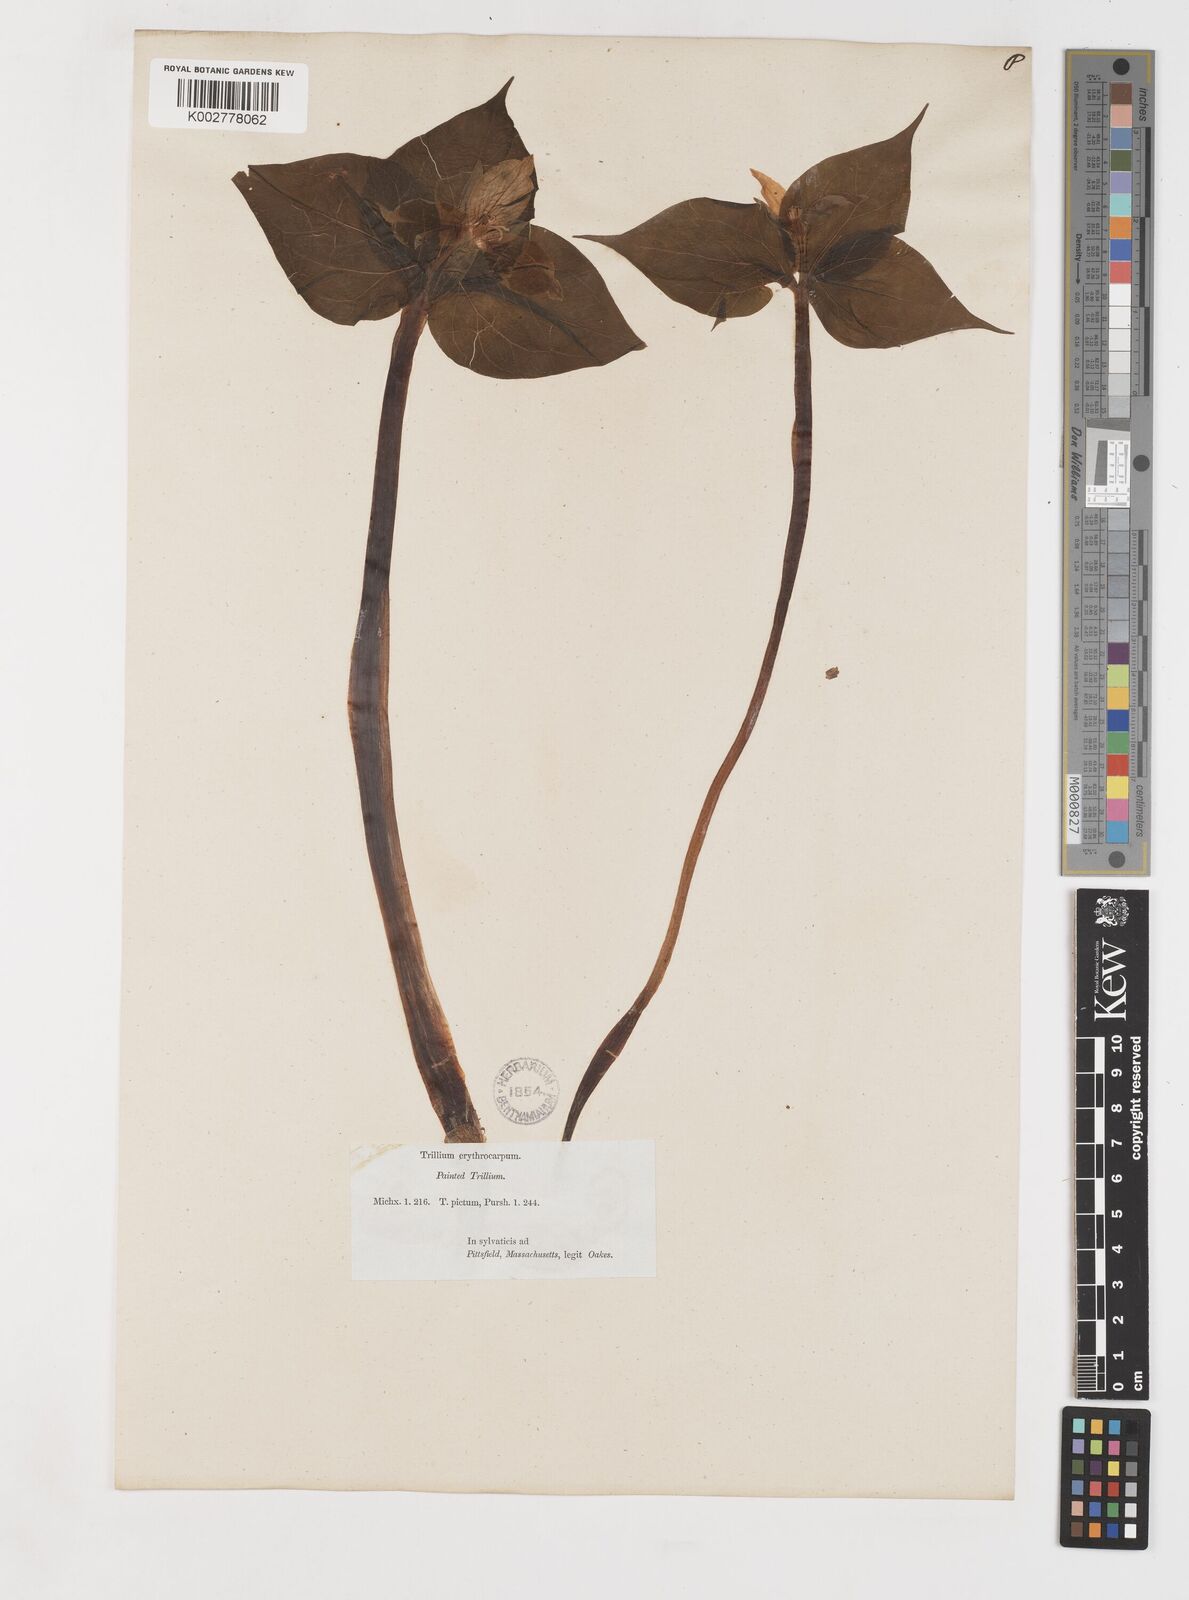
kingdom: Plantae
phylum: Tracheophyta
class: Liliopsida
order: Liliales
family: Melanthiaceae
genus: Trillium
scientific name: Trillium undulatum
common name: Paint trillium
